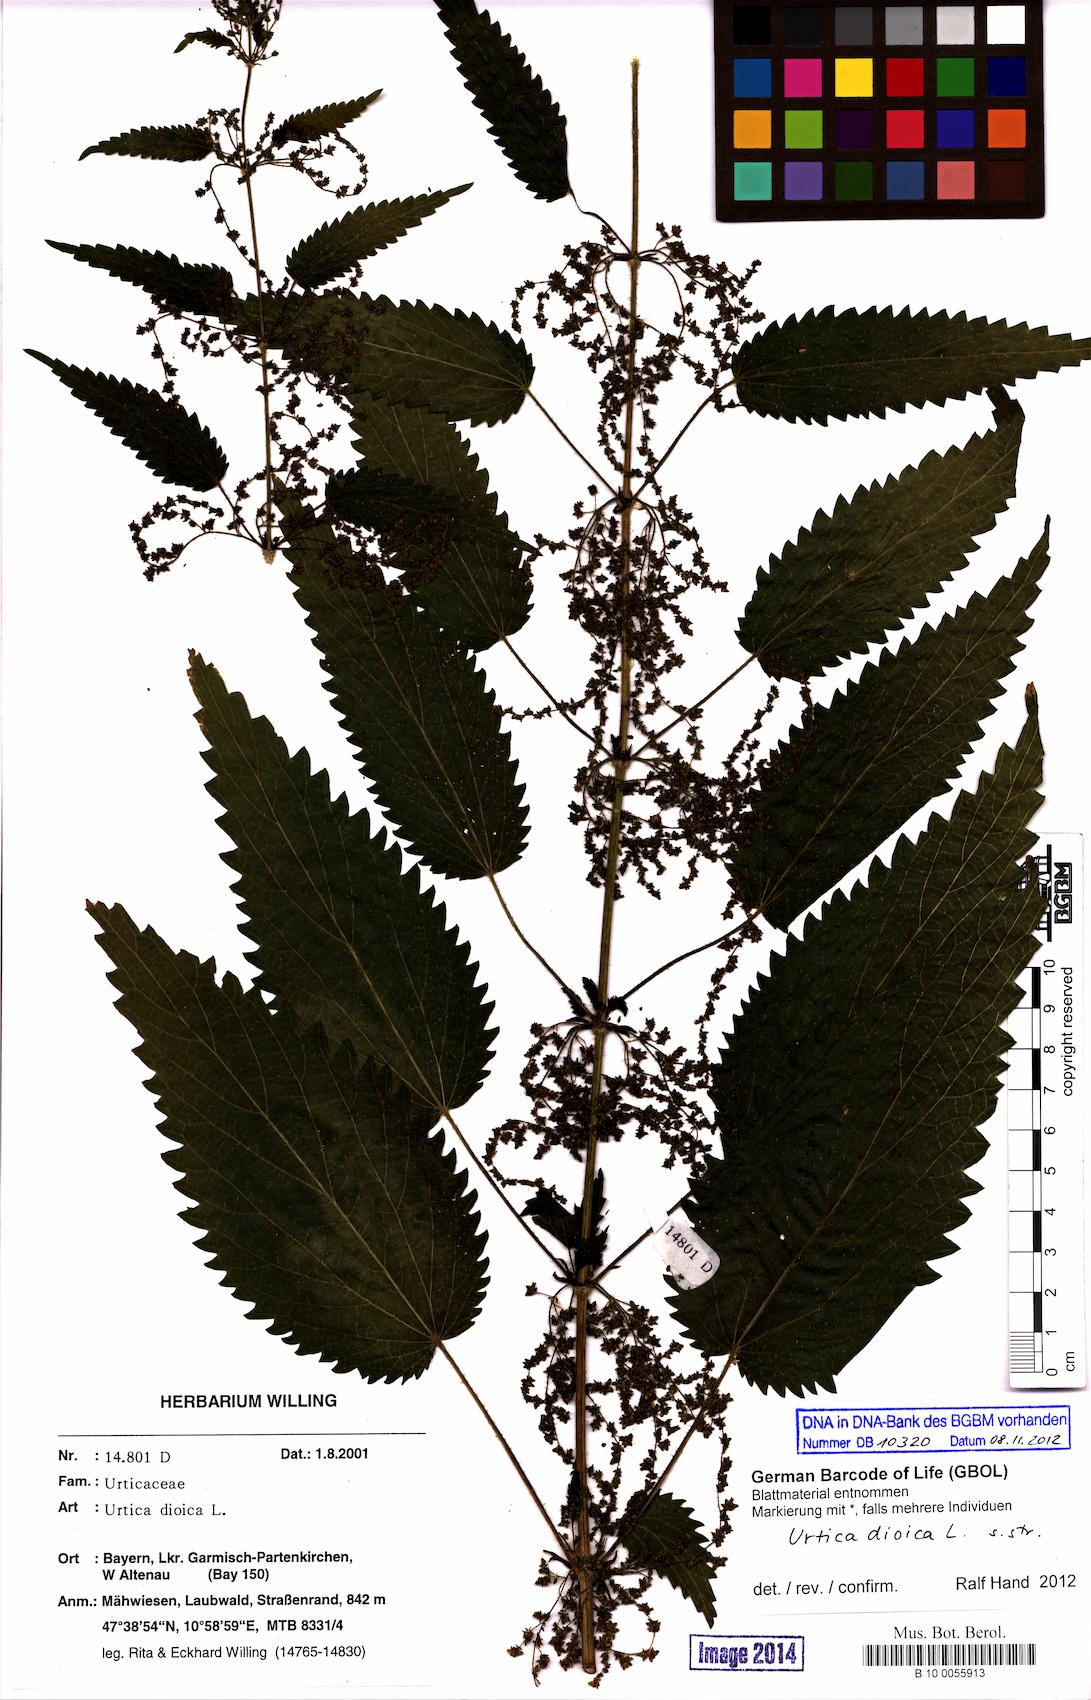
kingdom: Plantae
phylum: Tracheophyta
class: Magnoliopsida
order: Rosales
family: Urticaceae
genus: Urtica
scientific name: Urtica dioica
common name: Common nettle
